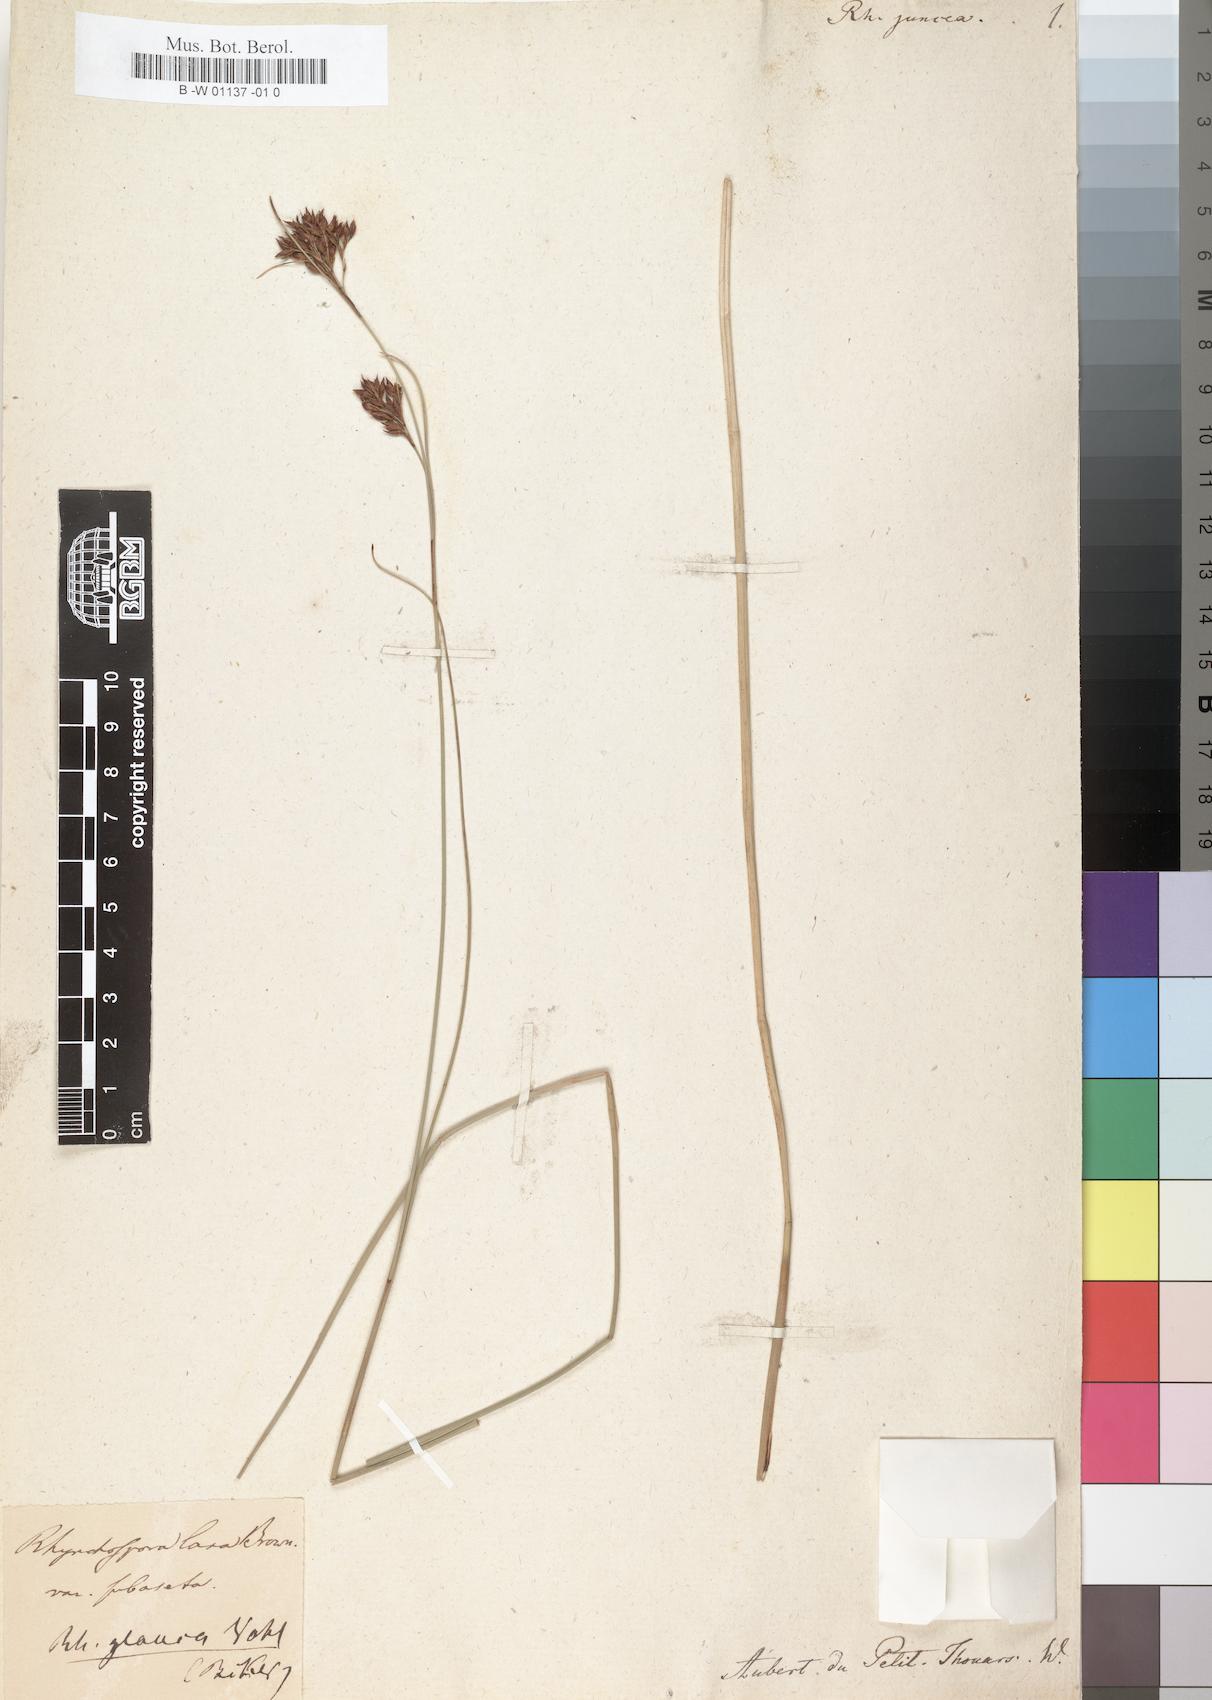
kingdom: Plantae
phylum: Tracheophyta
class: Liliopsida
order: Poales
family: Cyperaceae
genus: Rhynchospora
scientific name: Rhynchospora brownii
